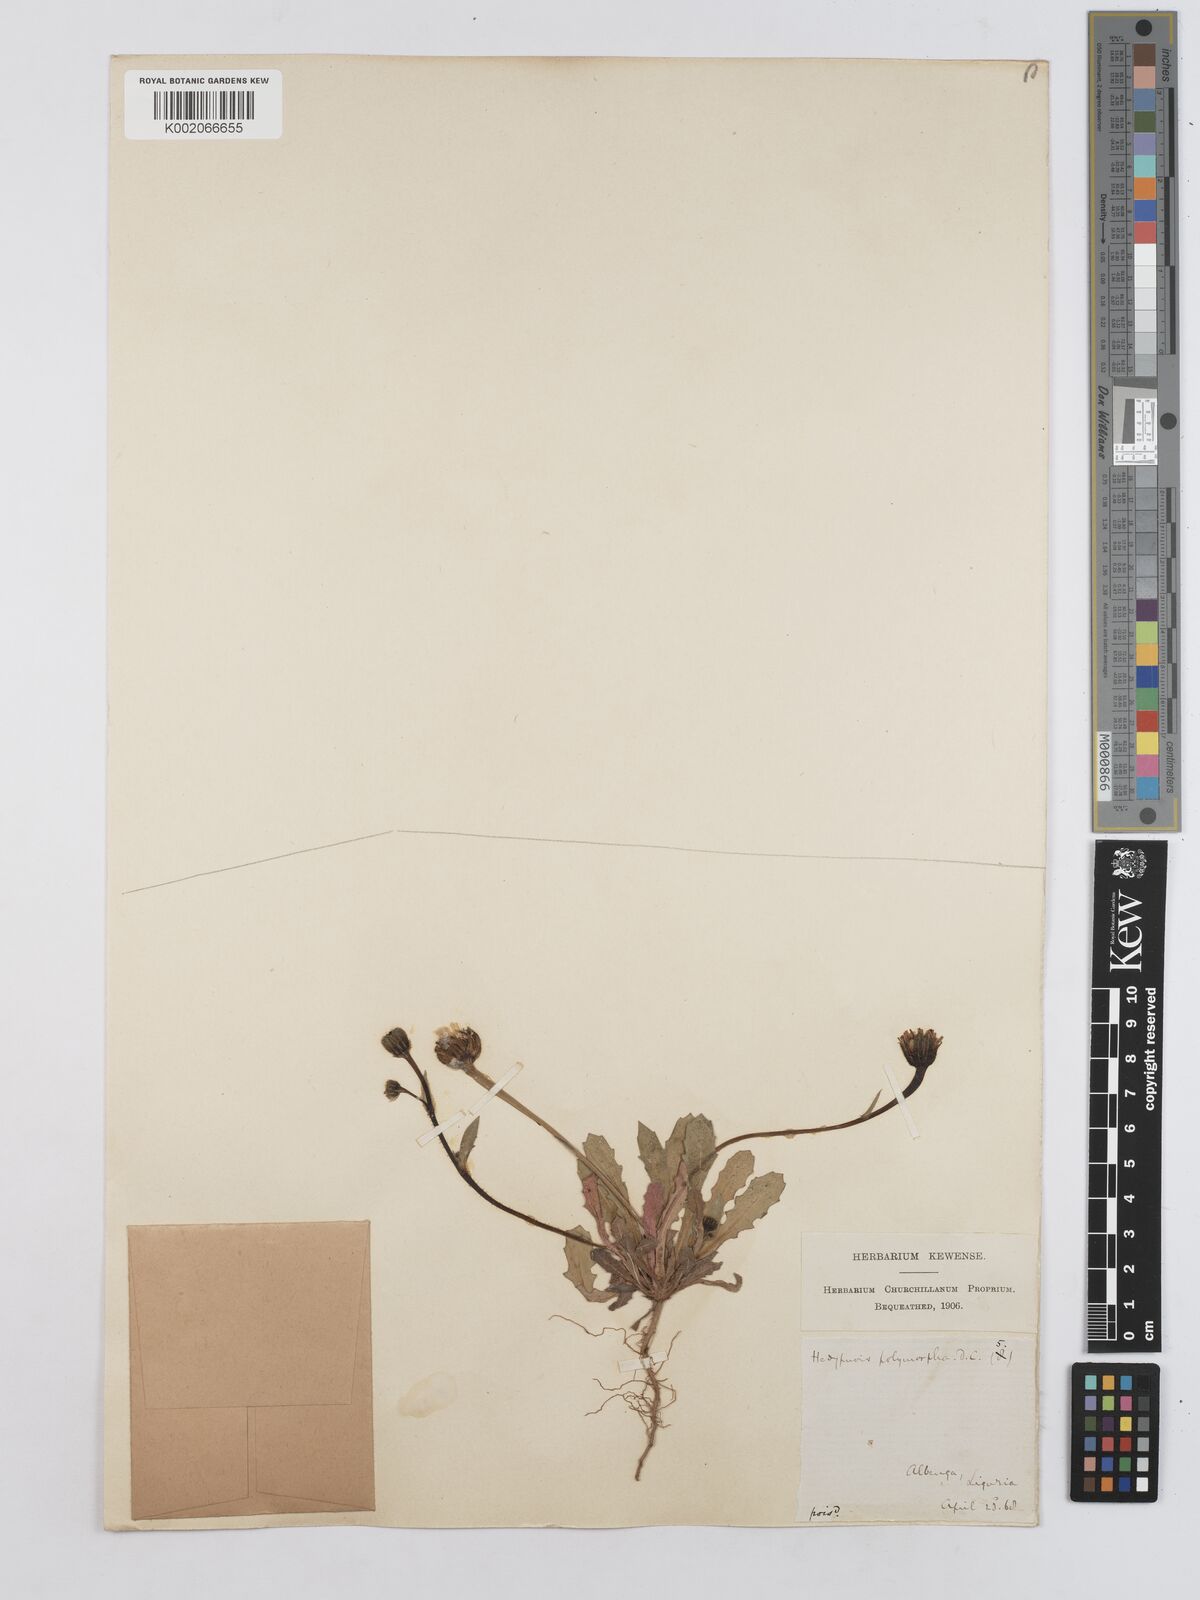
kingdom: Plantae
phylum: Tracheophyta
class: Magnoliopsida
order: Asterales
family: Asteraceae
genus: Hedypnois
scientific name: Hedypnois rhagadioloides
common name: Cretan weed
